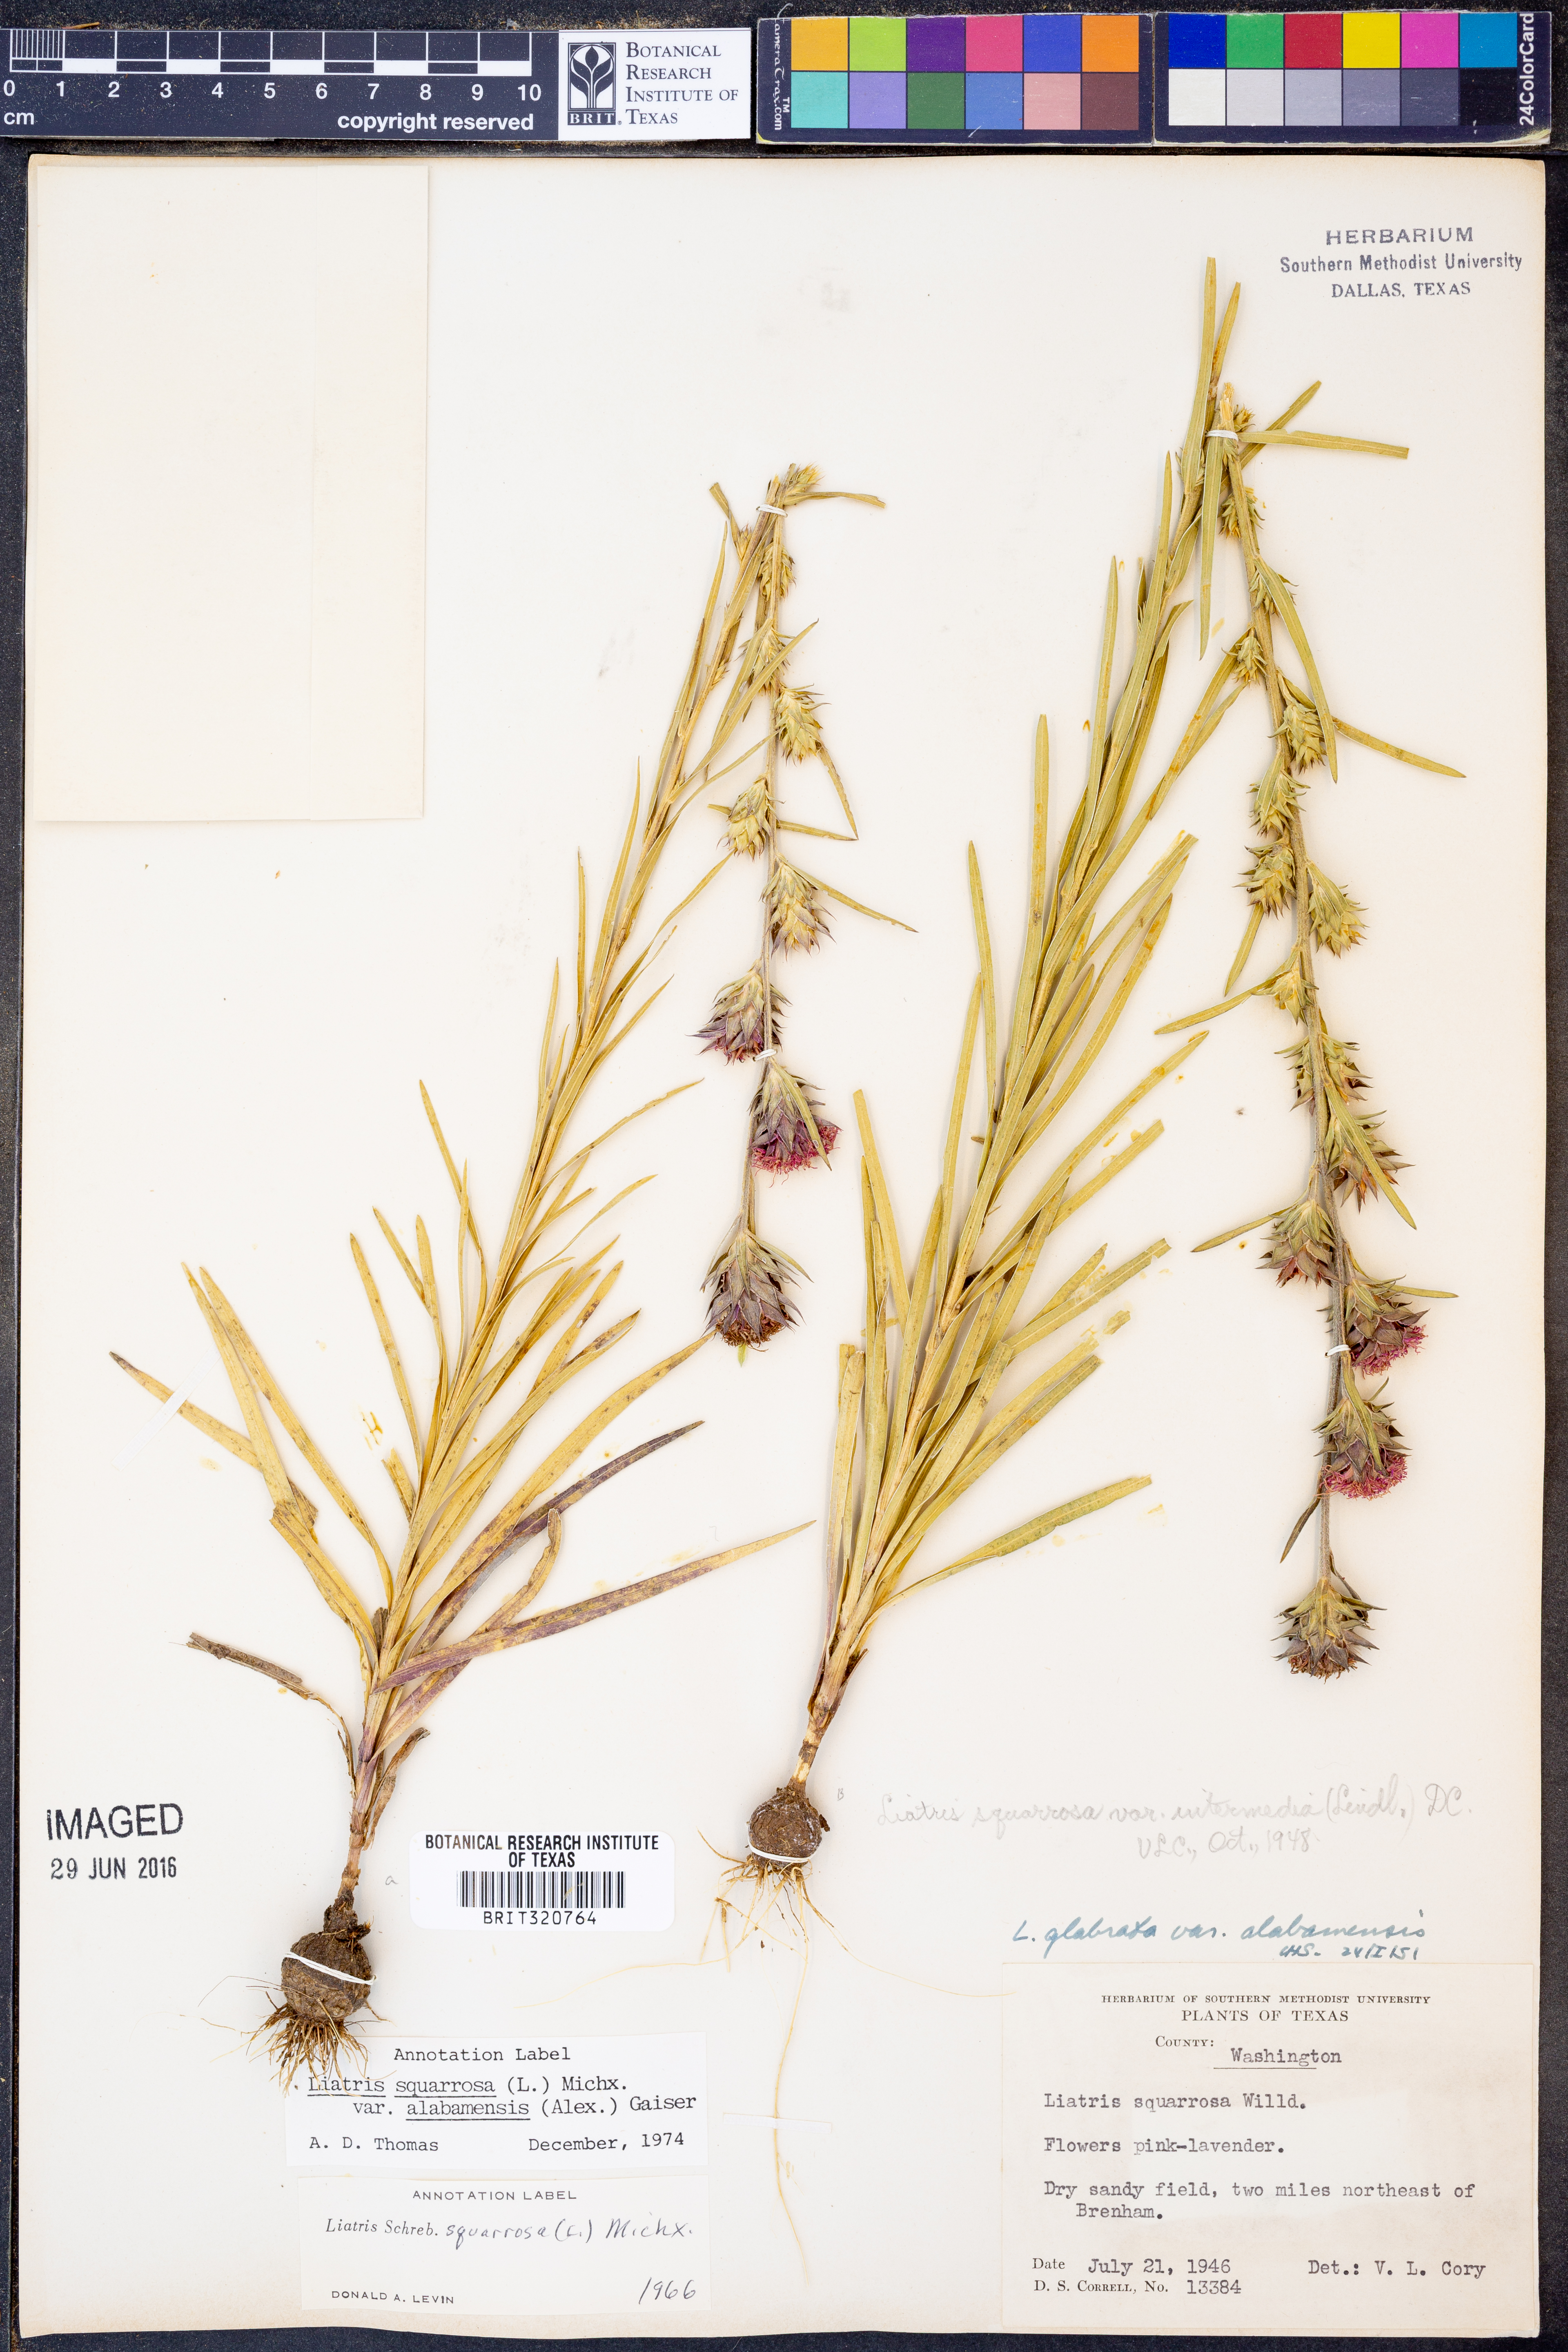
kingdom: Plantae
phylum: Tracheophyta
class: Magnoliopsida
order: Asterales
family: Asteraceae
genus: Liatris
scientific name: Liatris squarrosa
